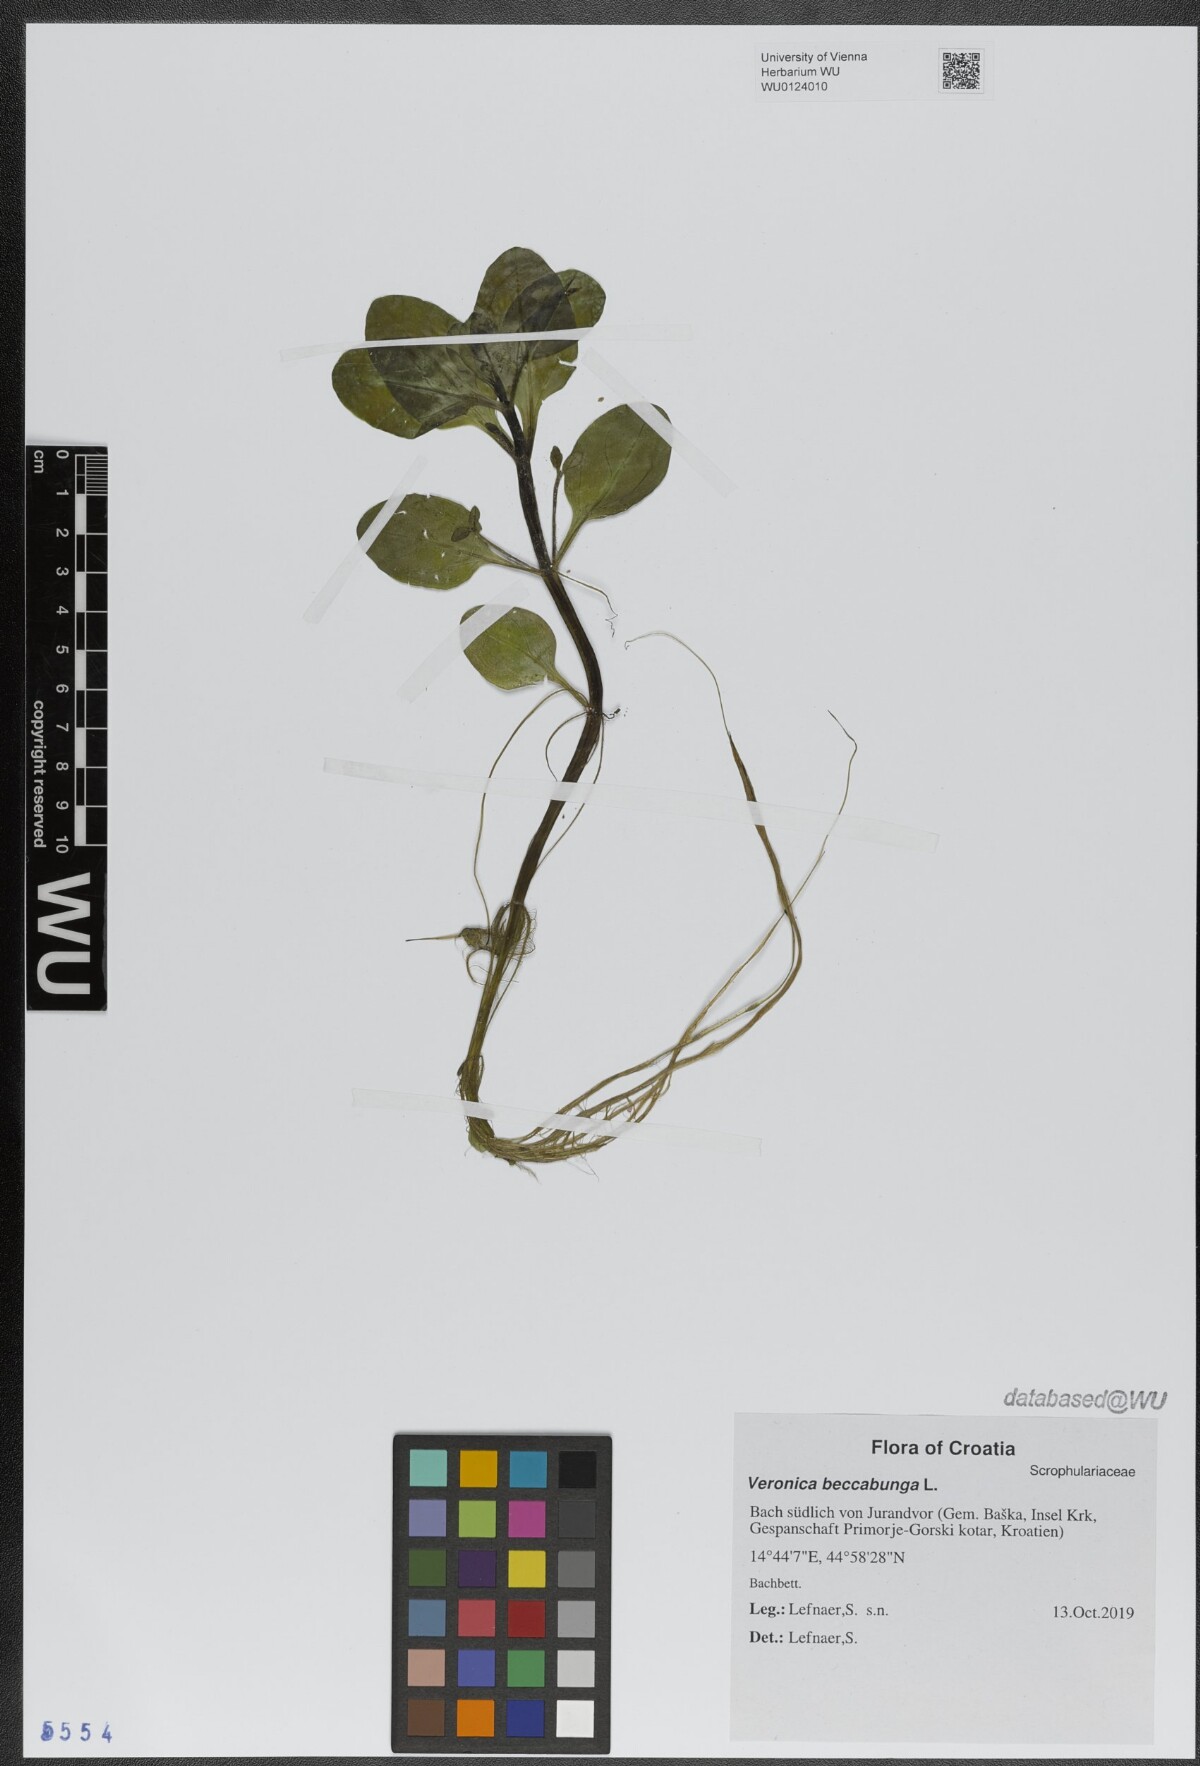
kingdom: Plantae
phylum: Tracheophyta
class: Magnoliopsida
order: Lamiales
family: Plantaginaceae
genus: Veronica
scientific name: Veronica beccabunga
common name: Brooklime
